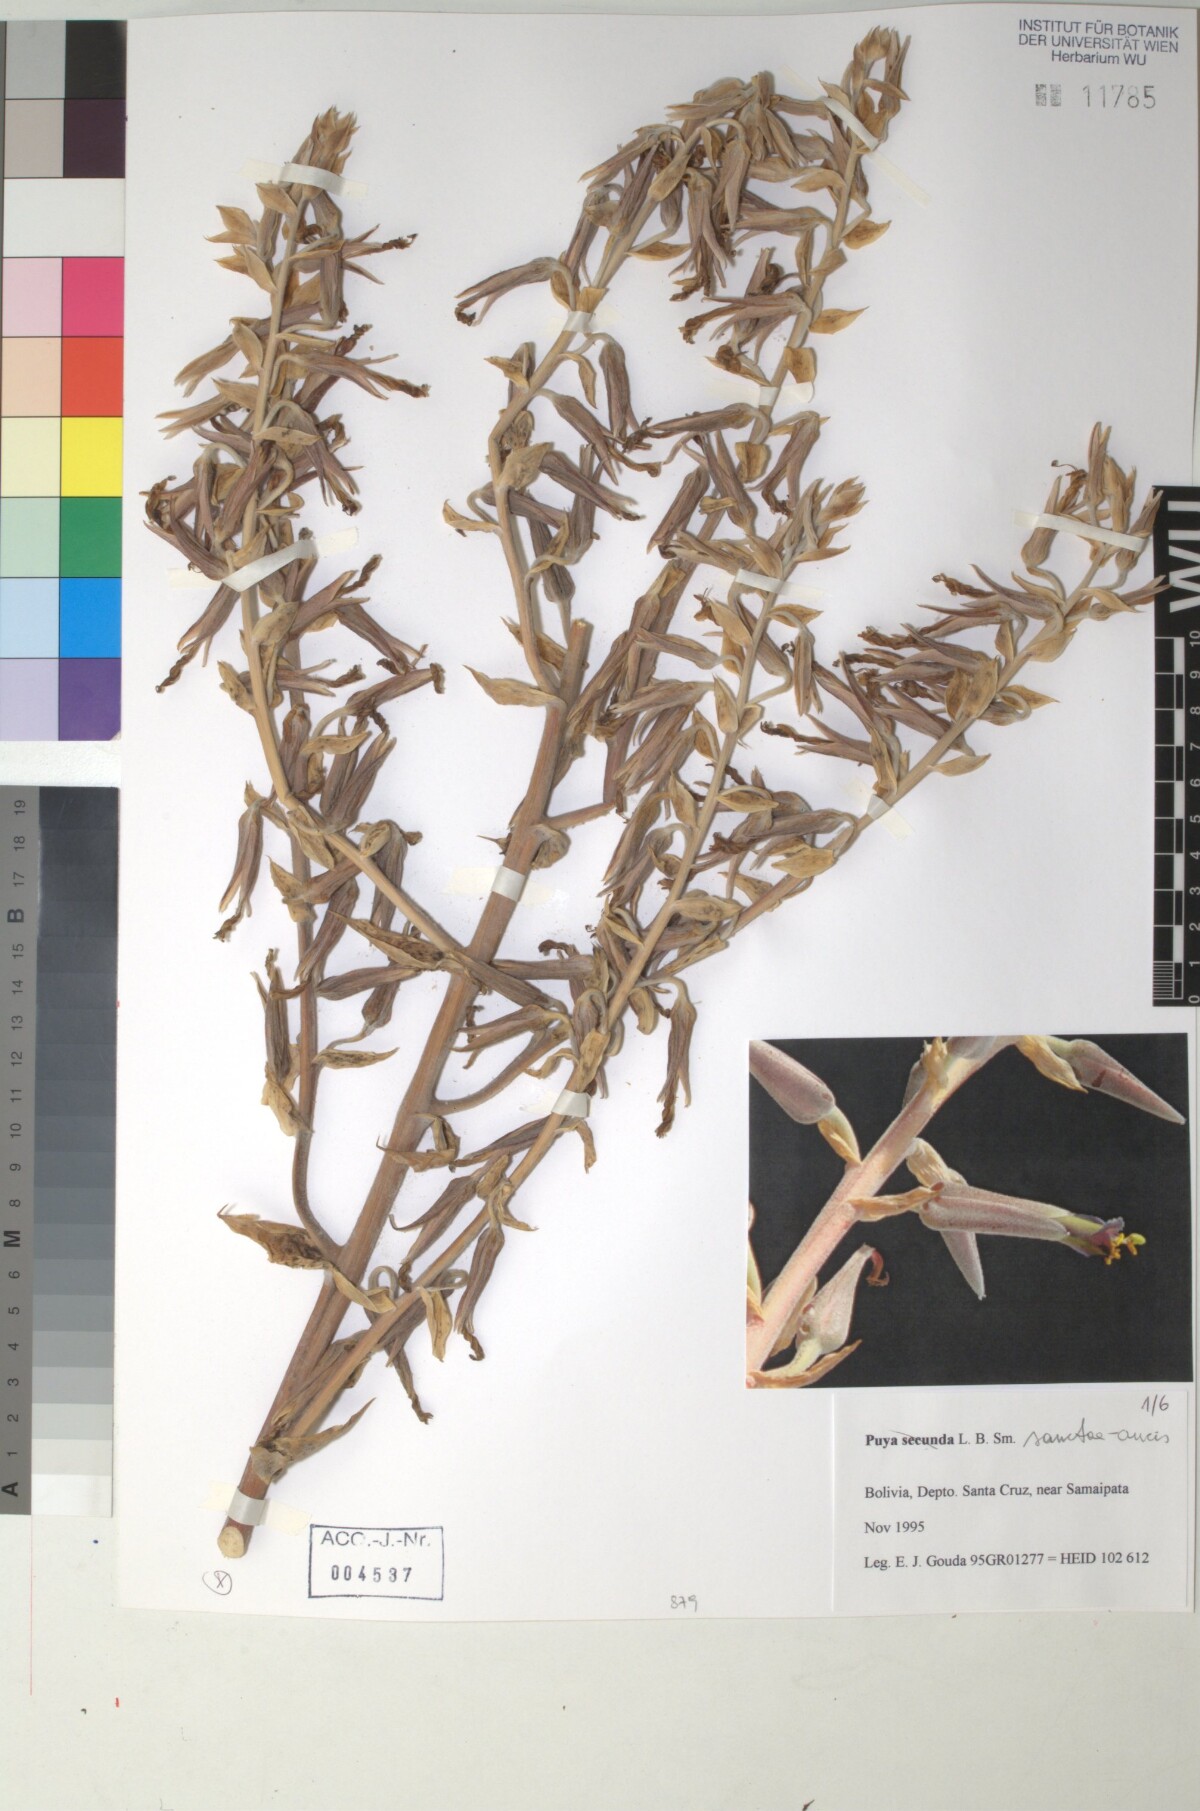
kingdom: Plantae
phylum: Tracheophyta
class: Liliopsida
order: Poales
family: Bromeliaceae
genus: Puya
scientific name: Puya secunda
